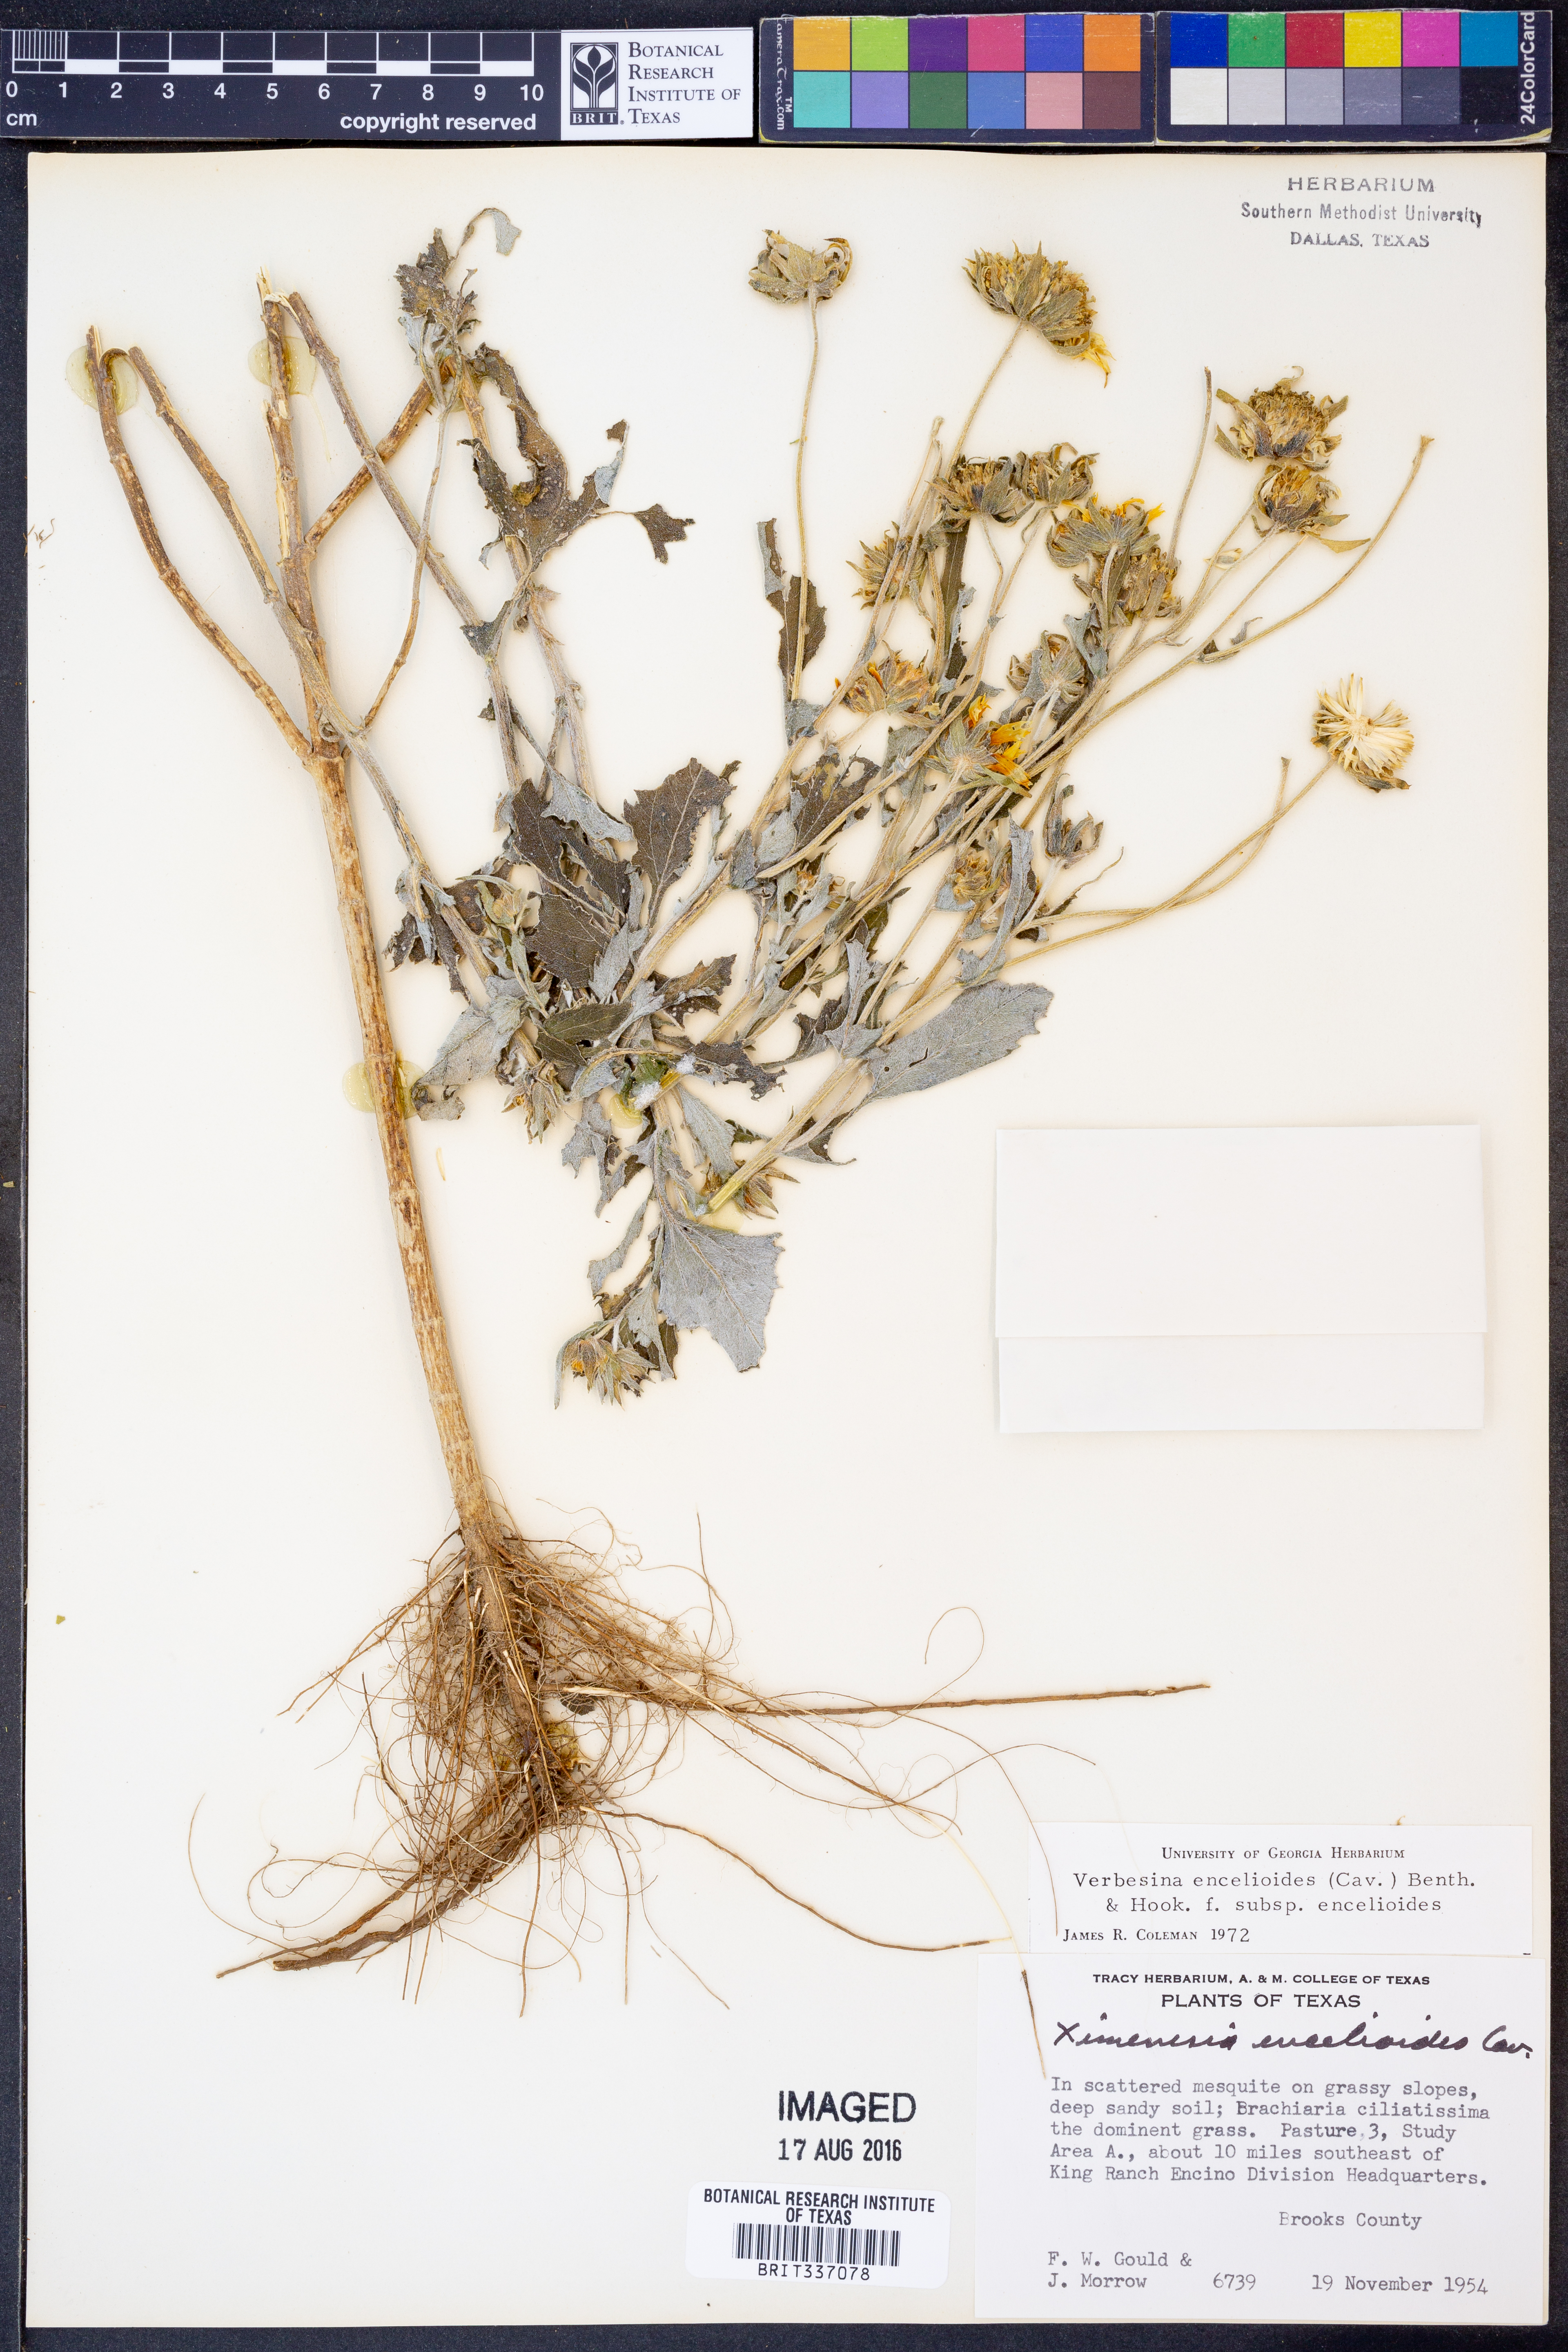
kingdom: Plantae
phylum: Tracheophyta
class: Magnoliopsida
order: Asterales
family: Asteraceae
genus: Verbesina
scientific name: Verbesina encelioides
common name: Golden crownbeard
